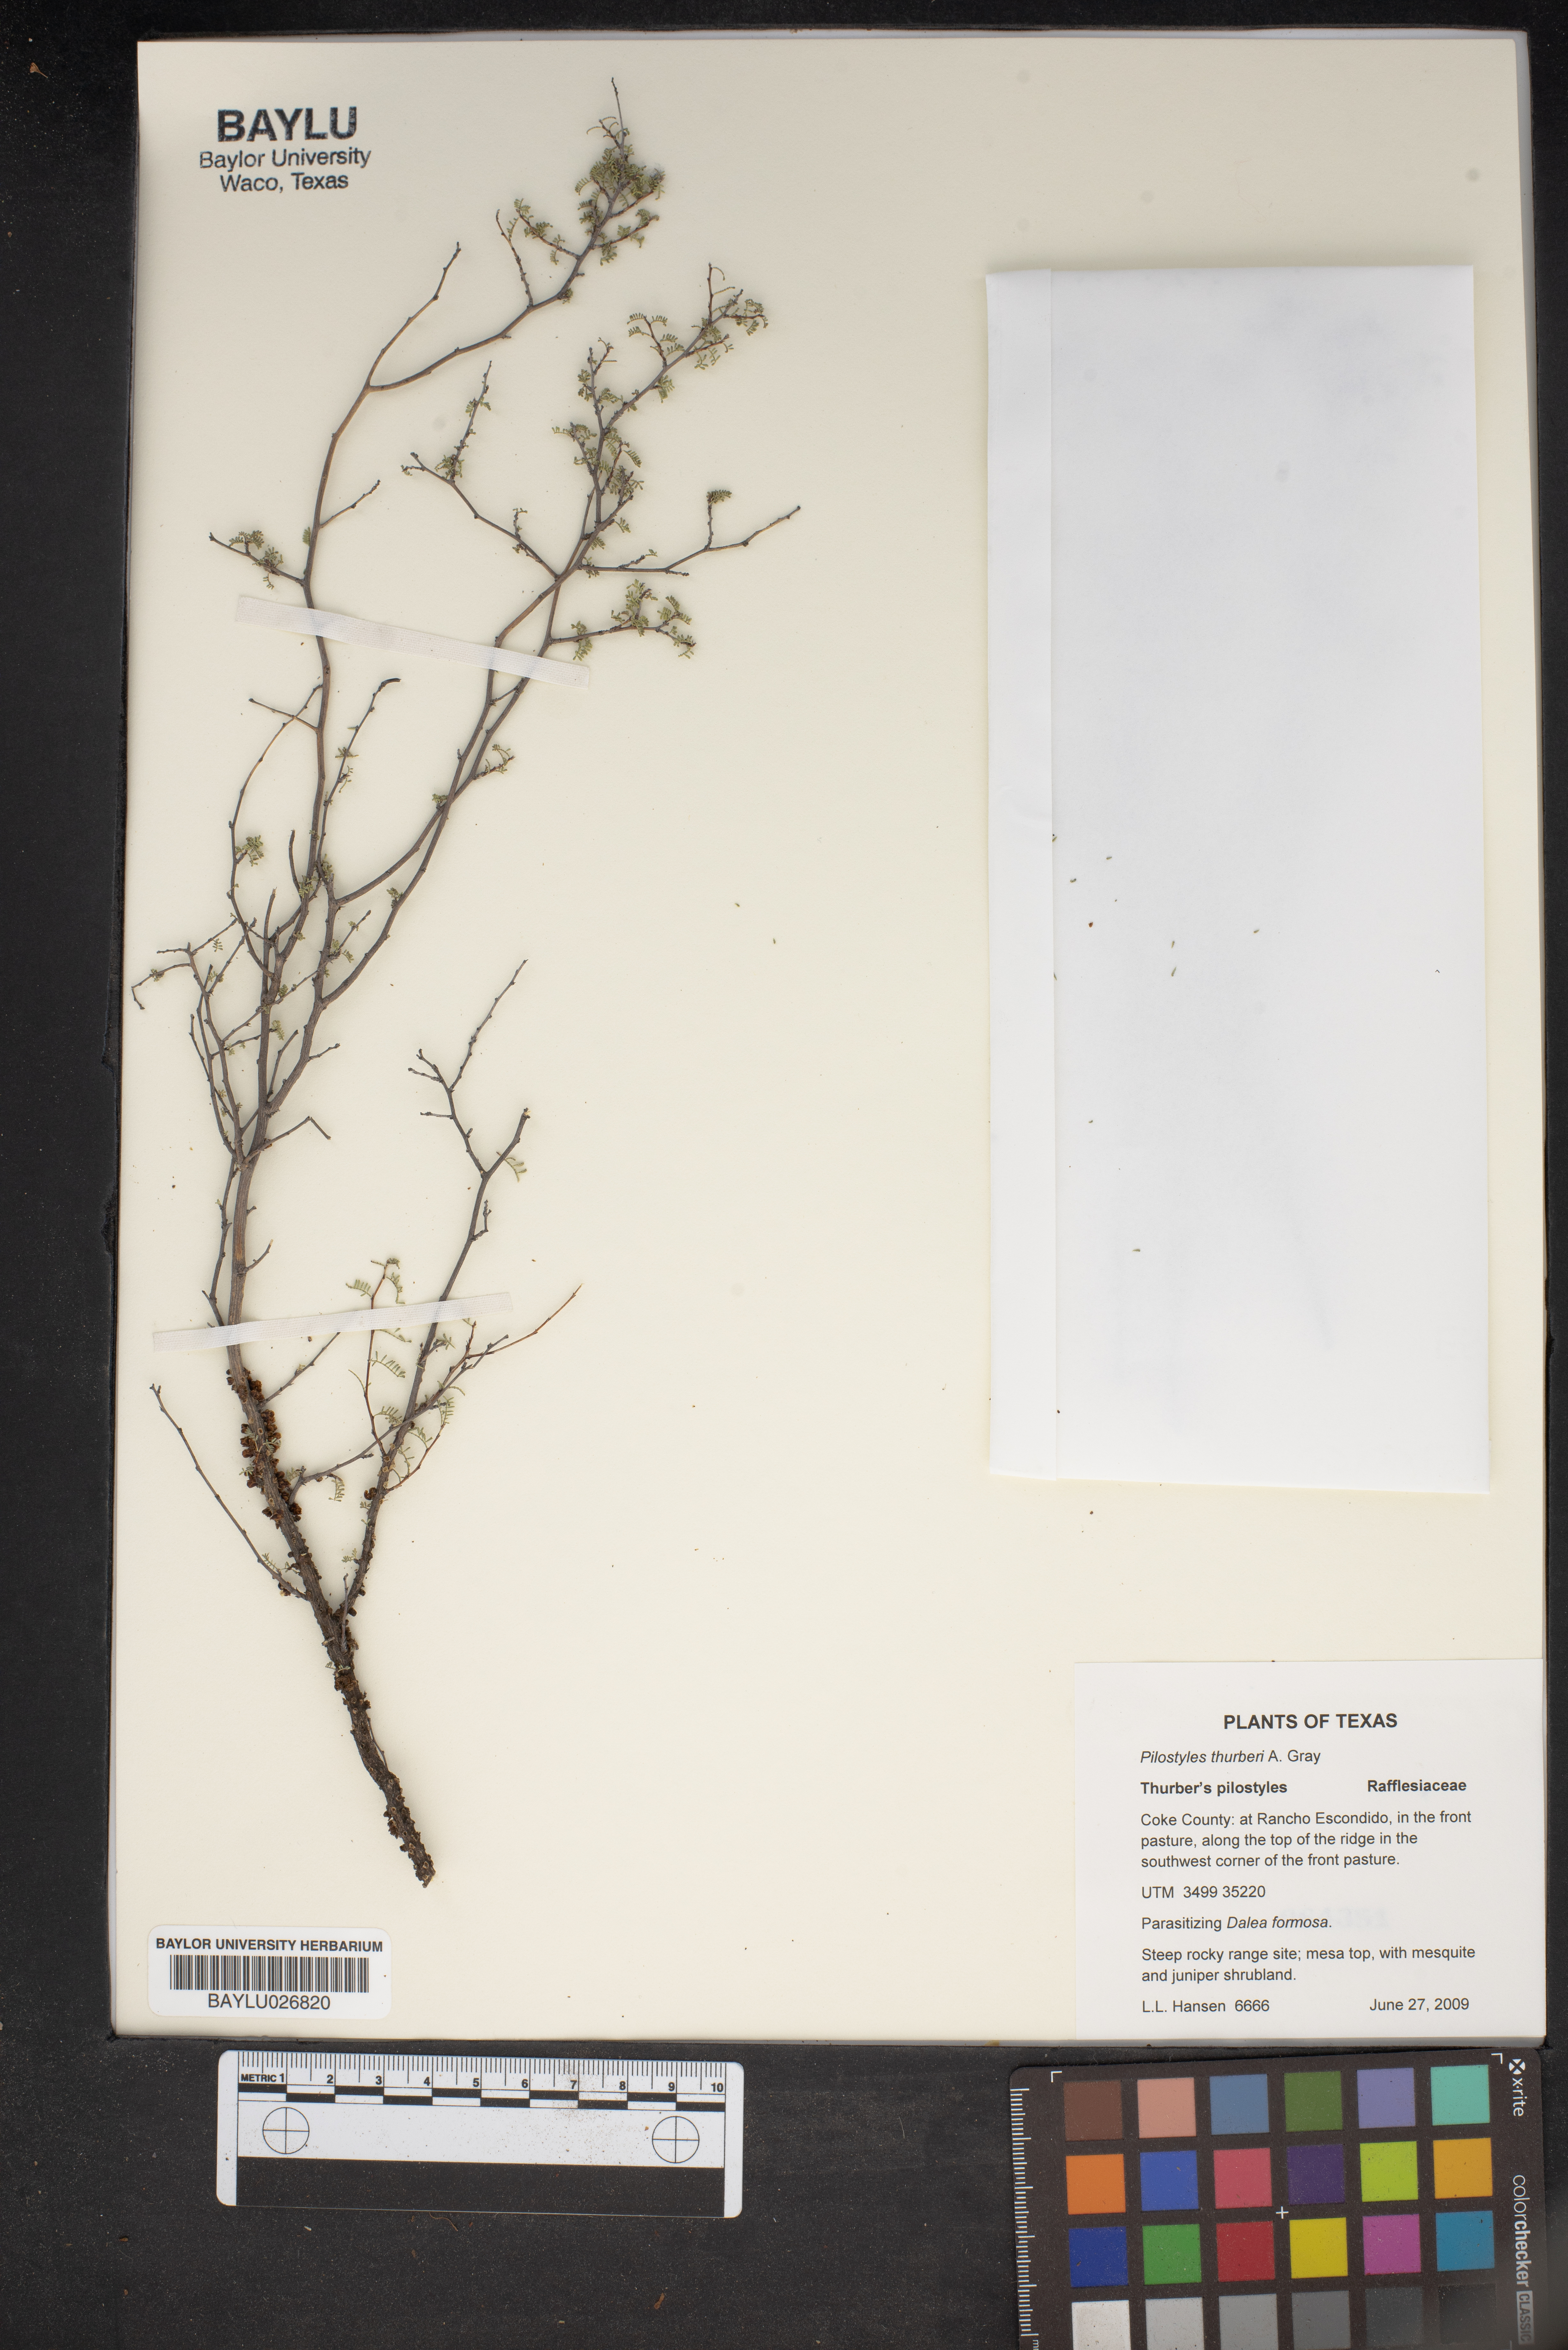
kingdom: Plantae
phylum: Tracheophyta
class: Magnoliopsida
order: Cucurbitales
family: Apodanthaceae
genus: Pilostyles
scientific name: Pilostyles thurberi
